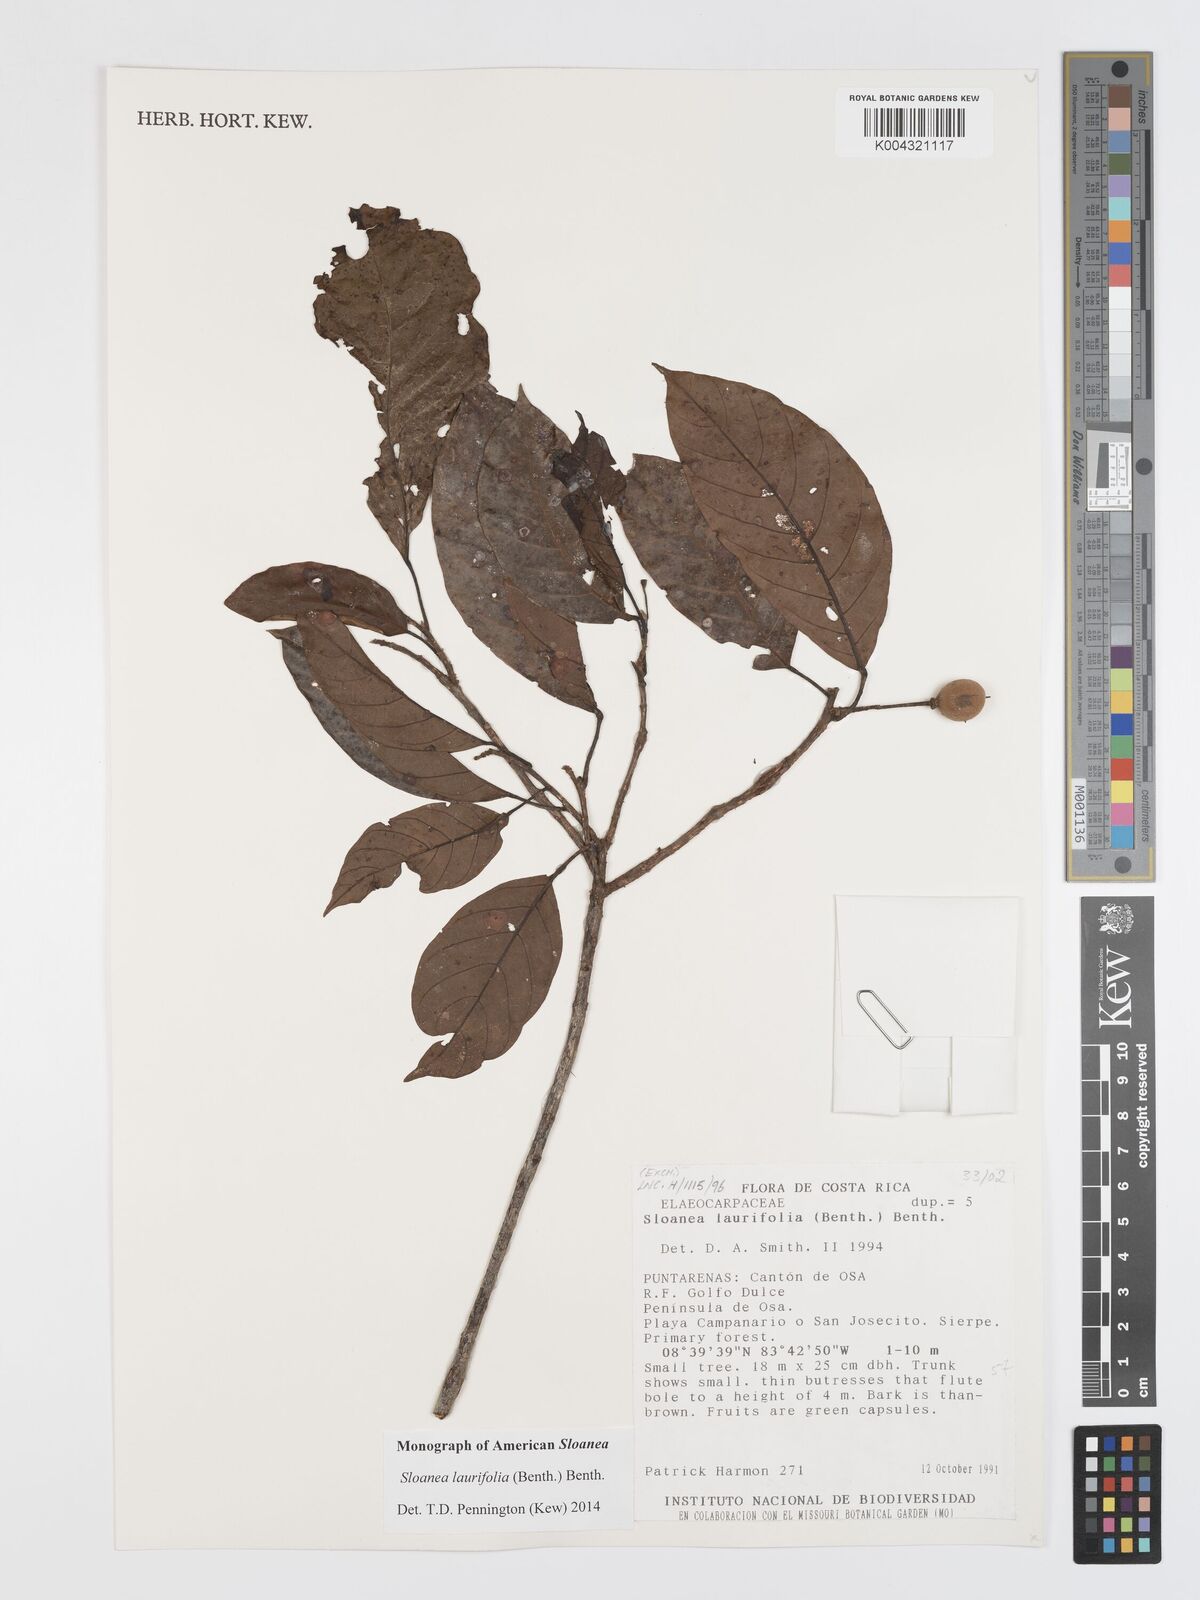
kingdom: Plantae
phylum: Tracheophyta
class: Magnoliopsida
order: Oxalidales
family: Elaeocarpaceae
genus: Sloanea
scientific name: Sloanea
